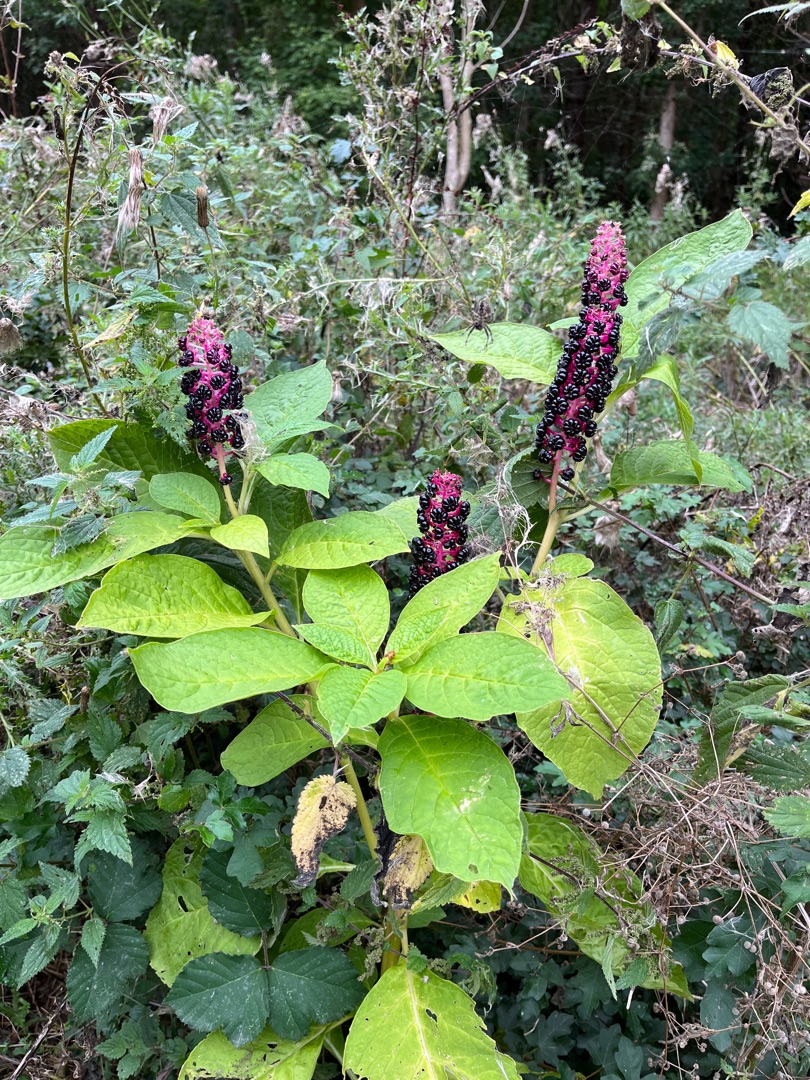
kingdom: Plantae
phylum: Tracheophyta
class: Magnoliopsida
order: Caryophyllales
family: Phytolaccaceae
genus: Phytolacca
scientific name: Phytolacca acinosa
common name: Asiatisk kermesbær
